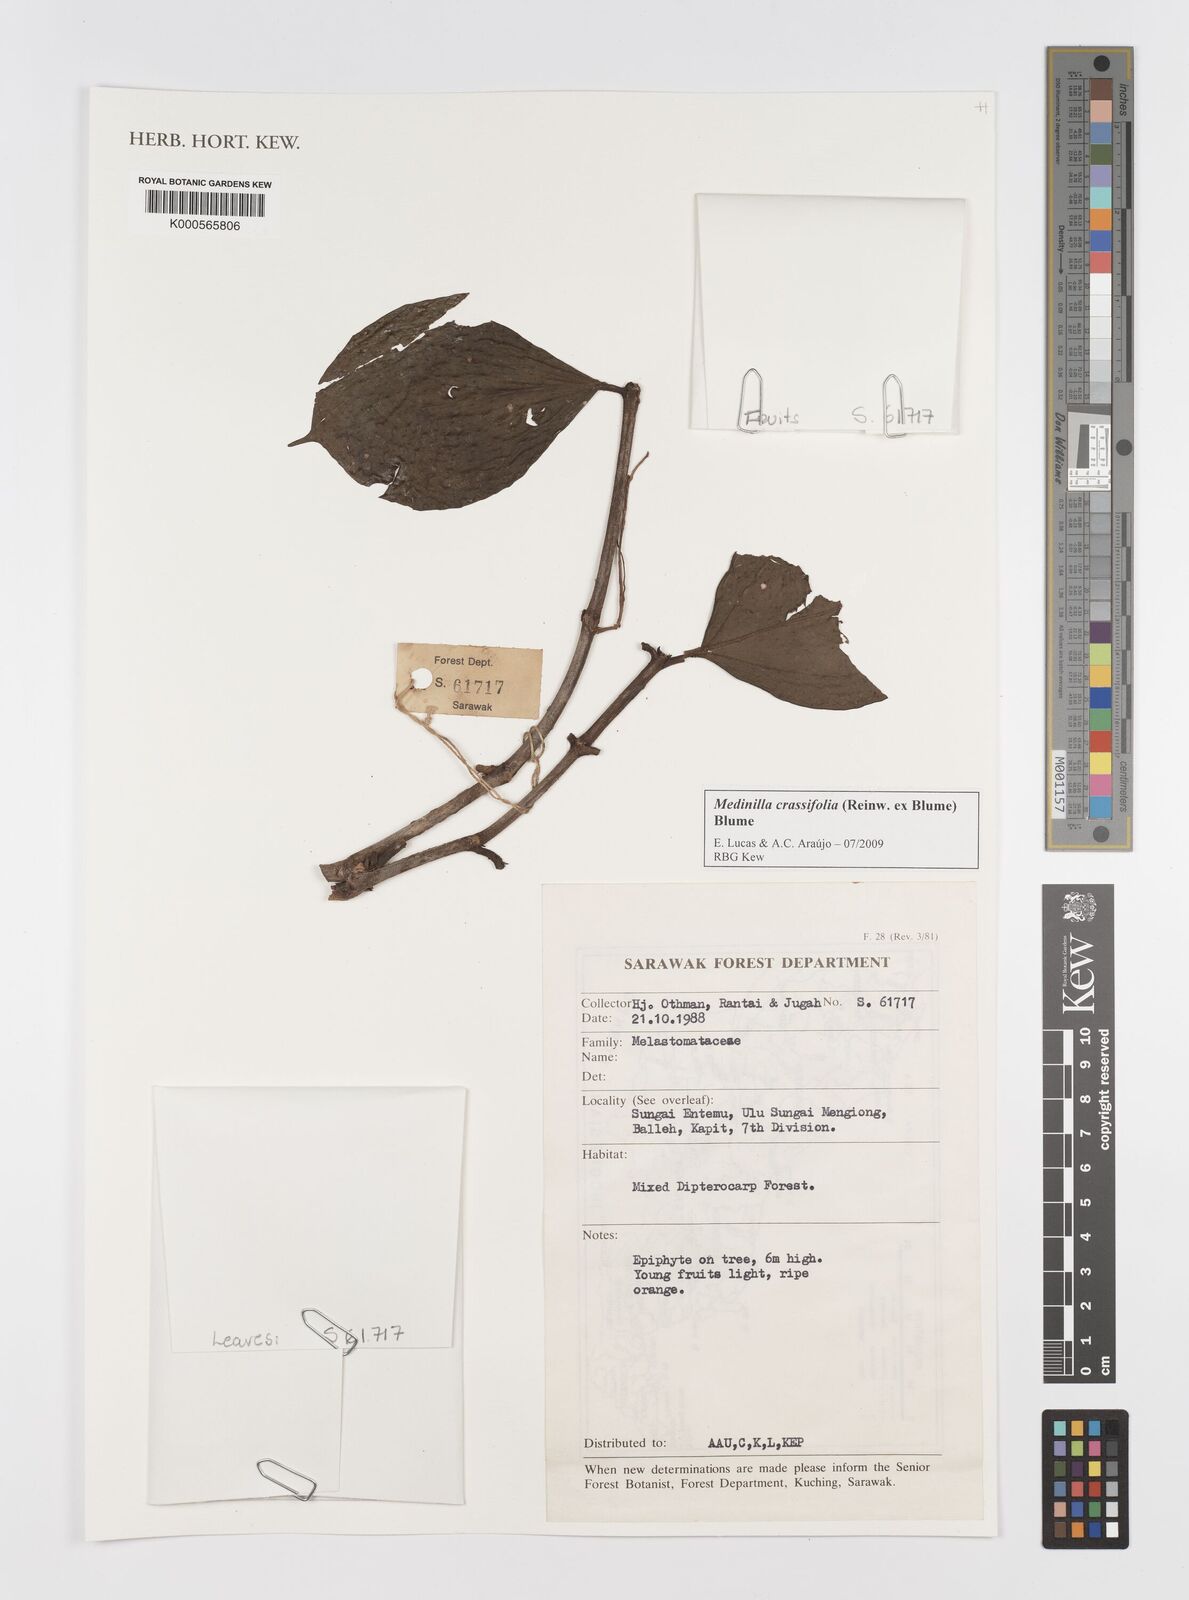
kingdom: Plantae
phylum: Tracheophyta
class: Magnoliopsida
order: Myrtales
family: Melastomataceae
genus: Medinilla
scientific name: Medinilla crassifolia
